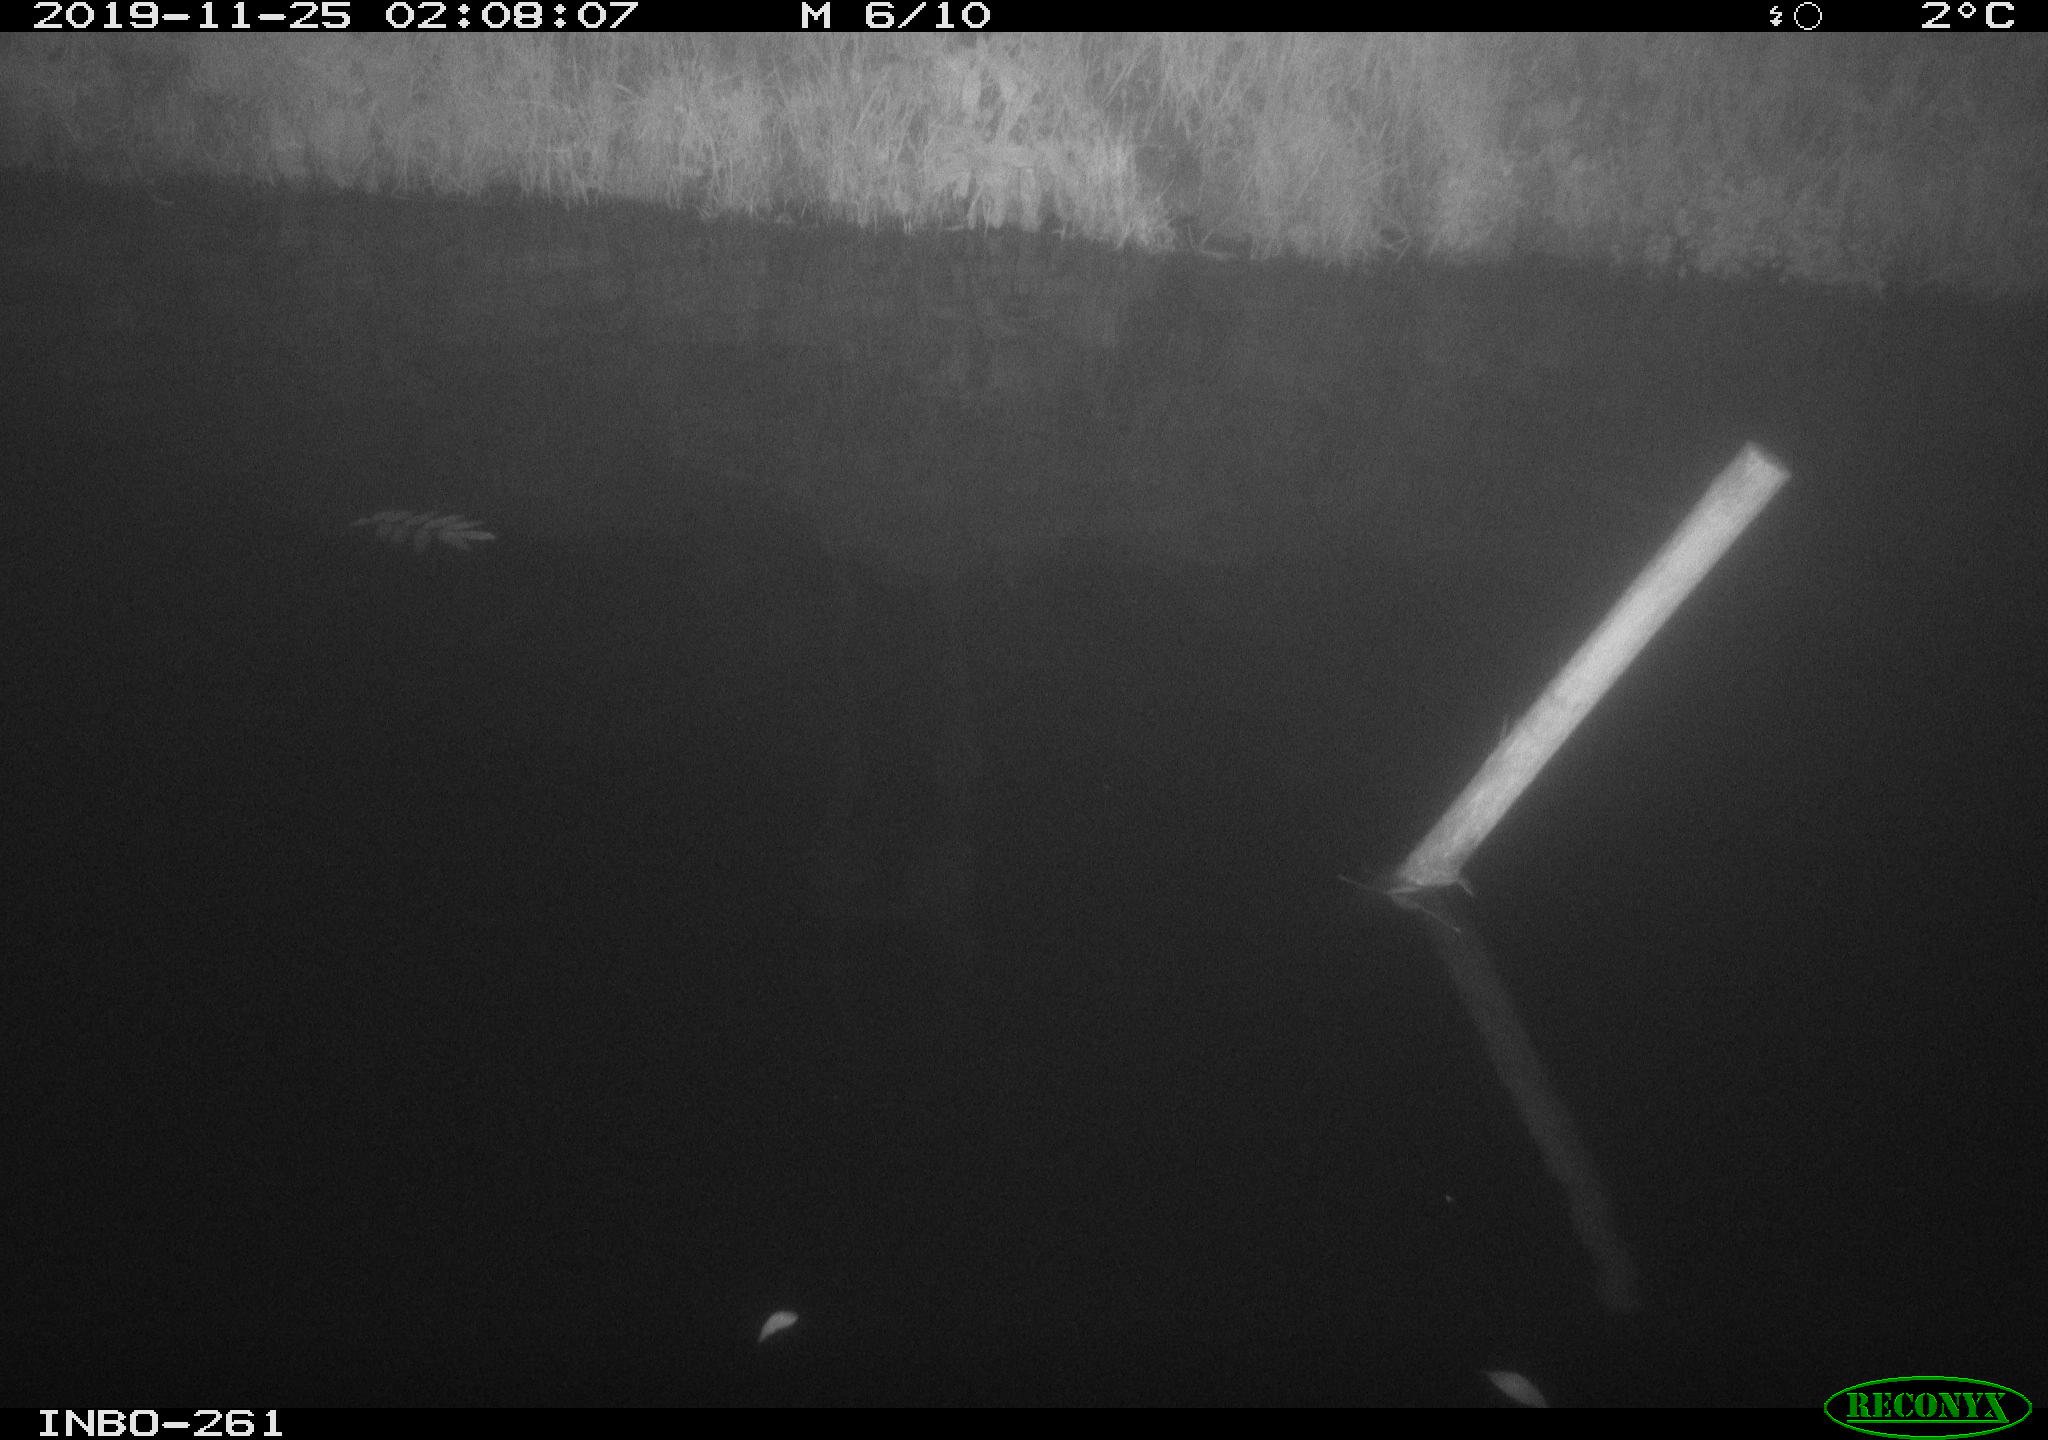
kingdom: Animalia
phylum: Chordata
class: Aves
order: Anseriformes
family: Anatidae
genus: Anas
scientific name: Anas platyrhynchos
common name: Mallard
